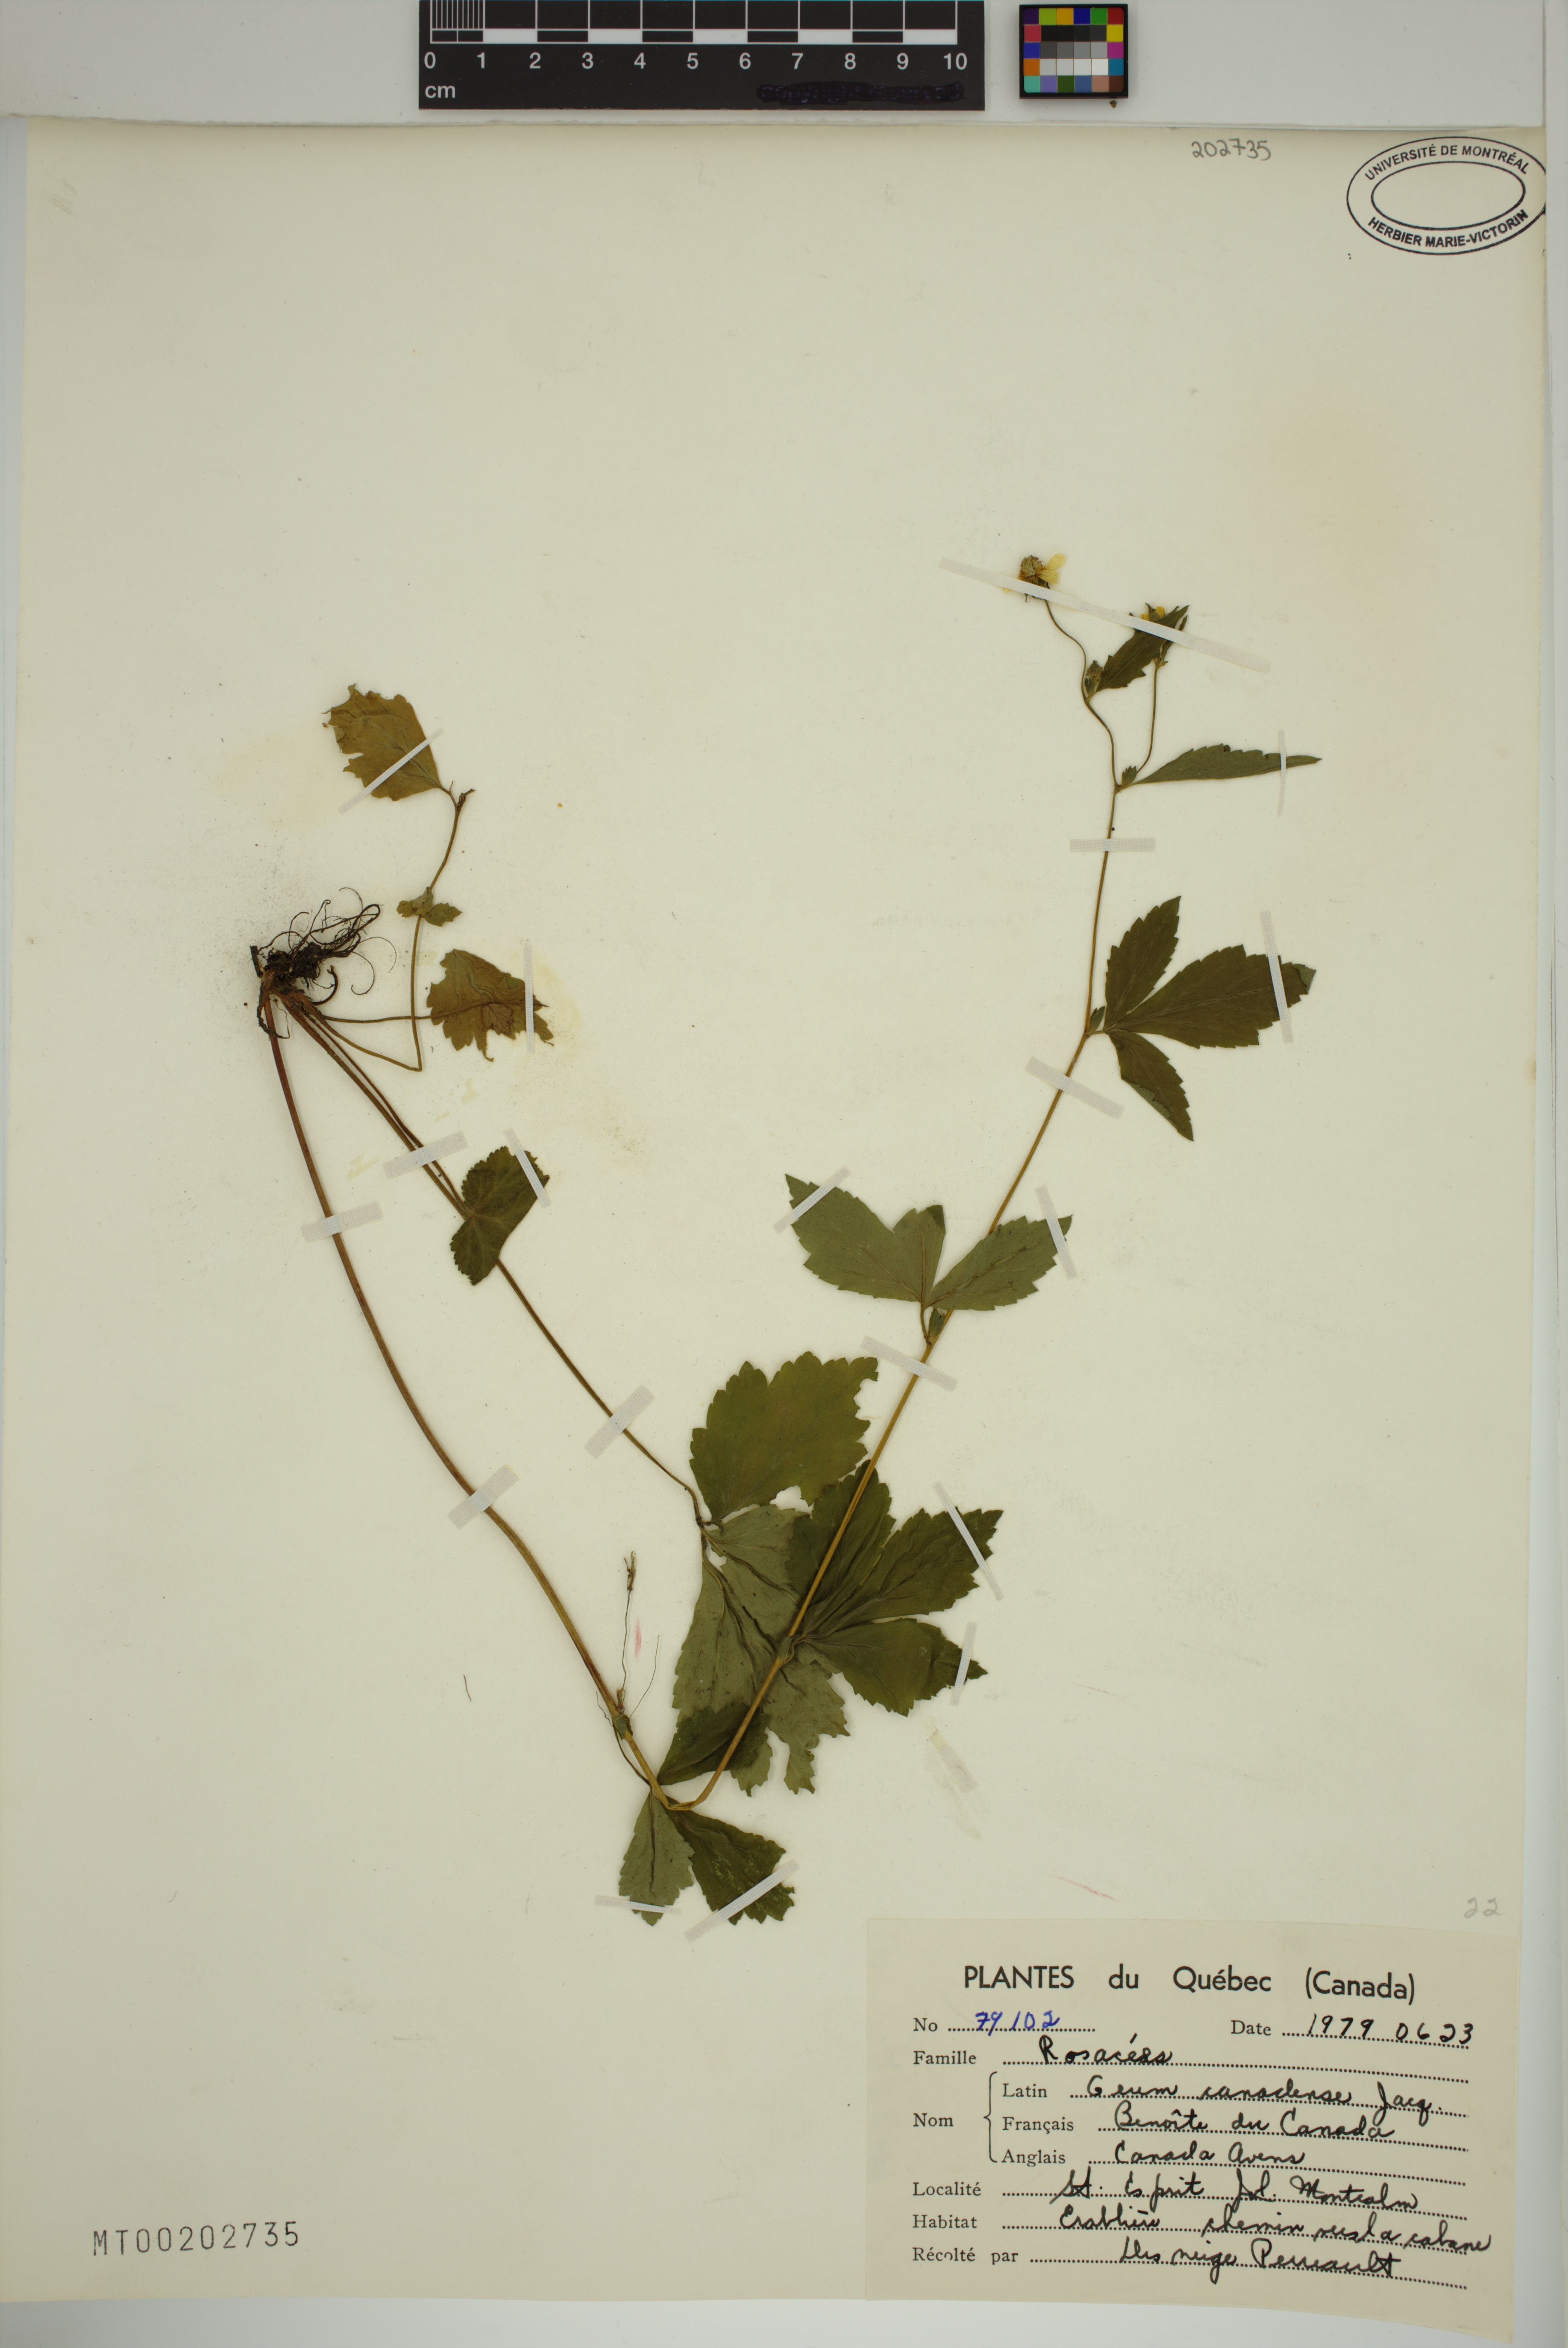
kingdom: Plantae
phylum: Tracheophyta
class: Magnoliopsida
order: Rosales
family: Rosaceae
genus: Geum
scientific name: Geum canadense
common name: White avens
